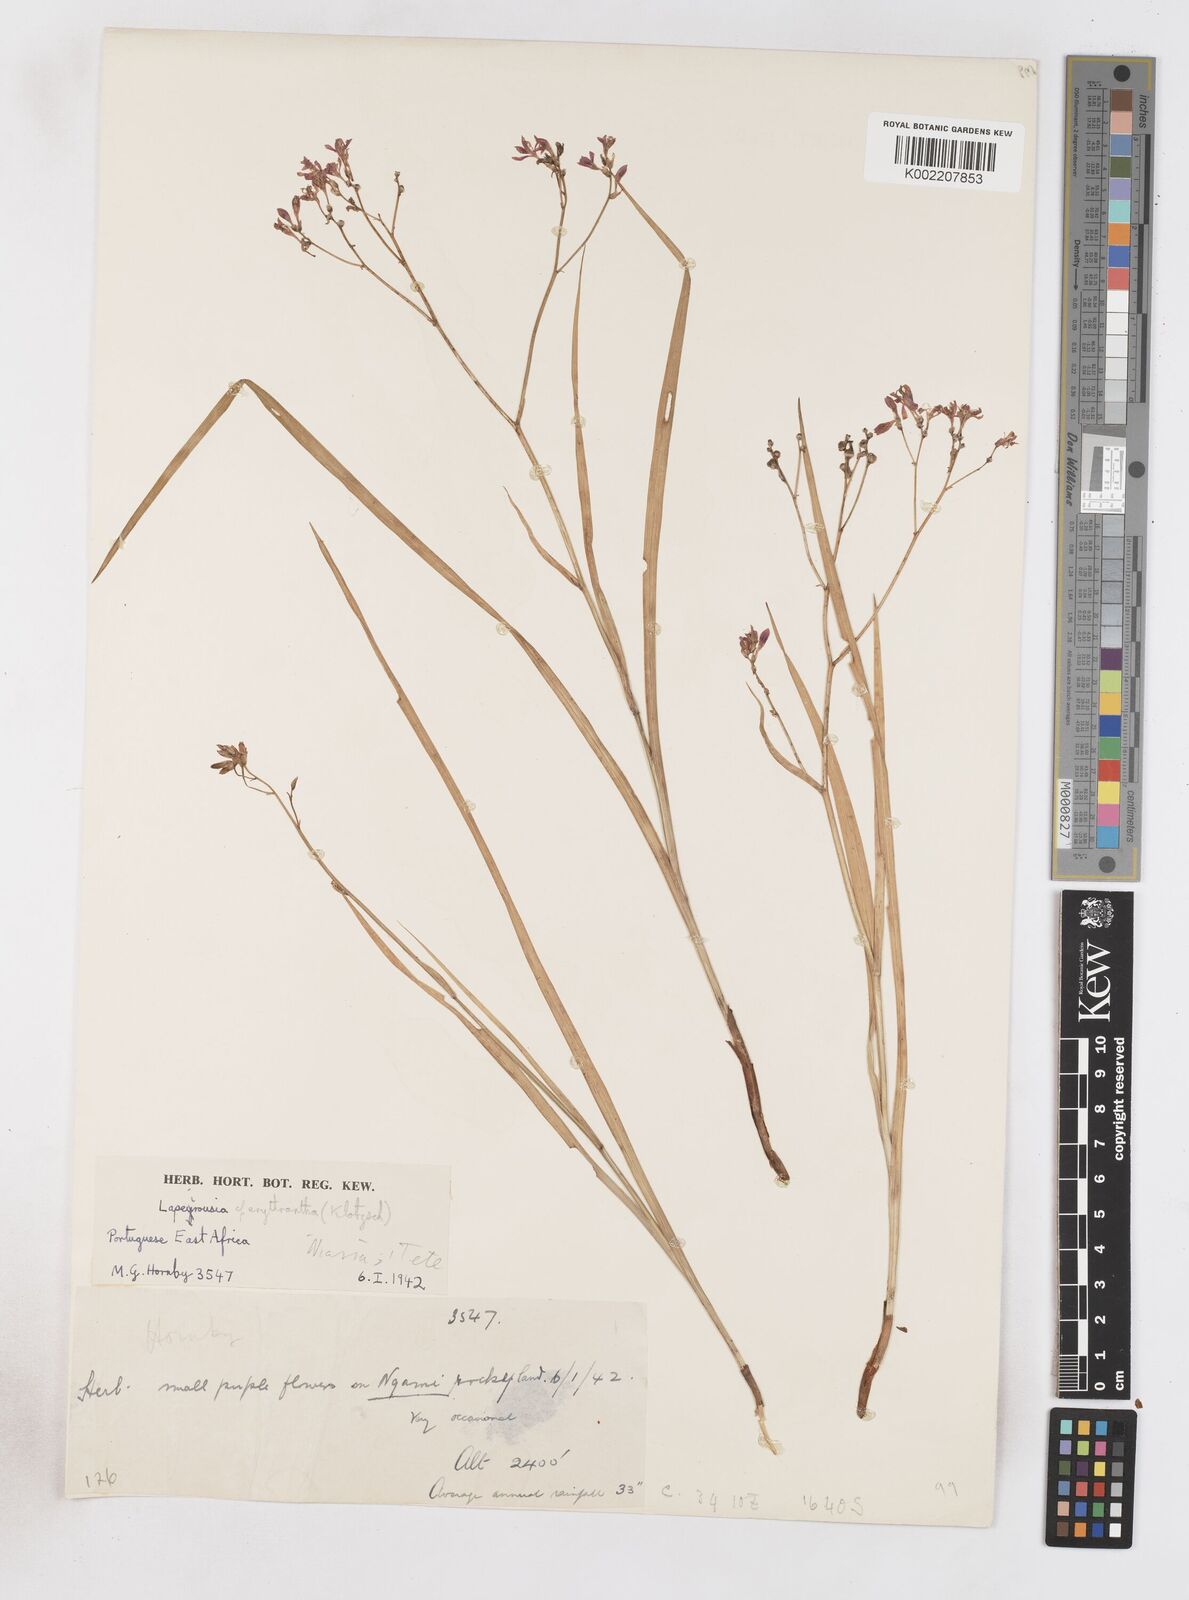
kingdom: Plantae
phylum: Tracheophyta
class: Liliopsida
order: Asparagales
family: Iridaceae
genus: Afrosolen
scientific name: Afrosolen erythranthus
